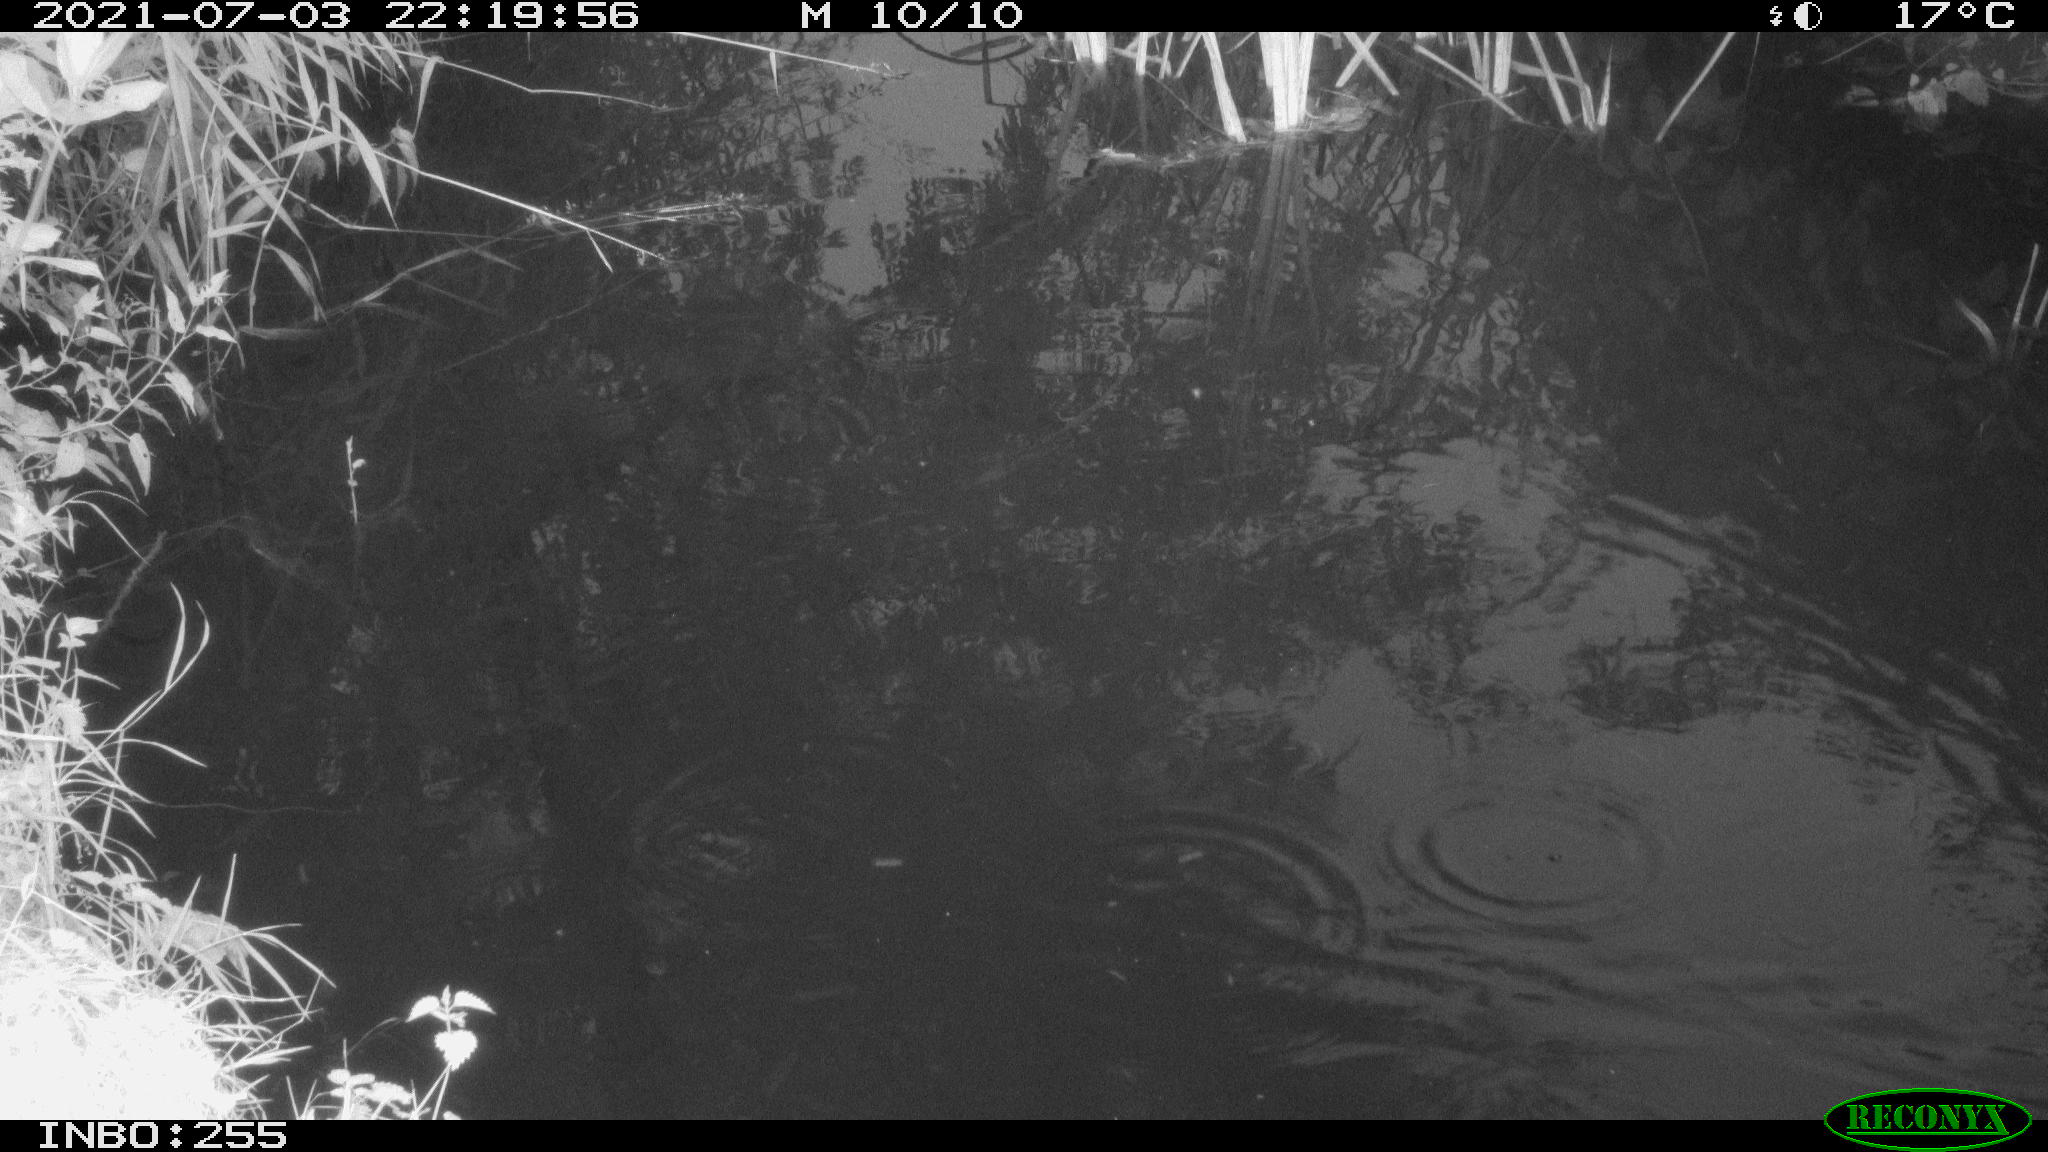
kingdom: Animalia
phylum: Chordata
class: Aves
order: Gruiformes
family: Rallidae
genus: Gallinula
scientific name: Gallinula chloropus
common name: Common moorhen
